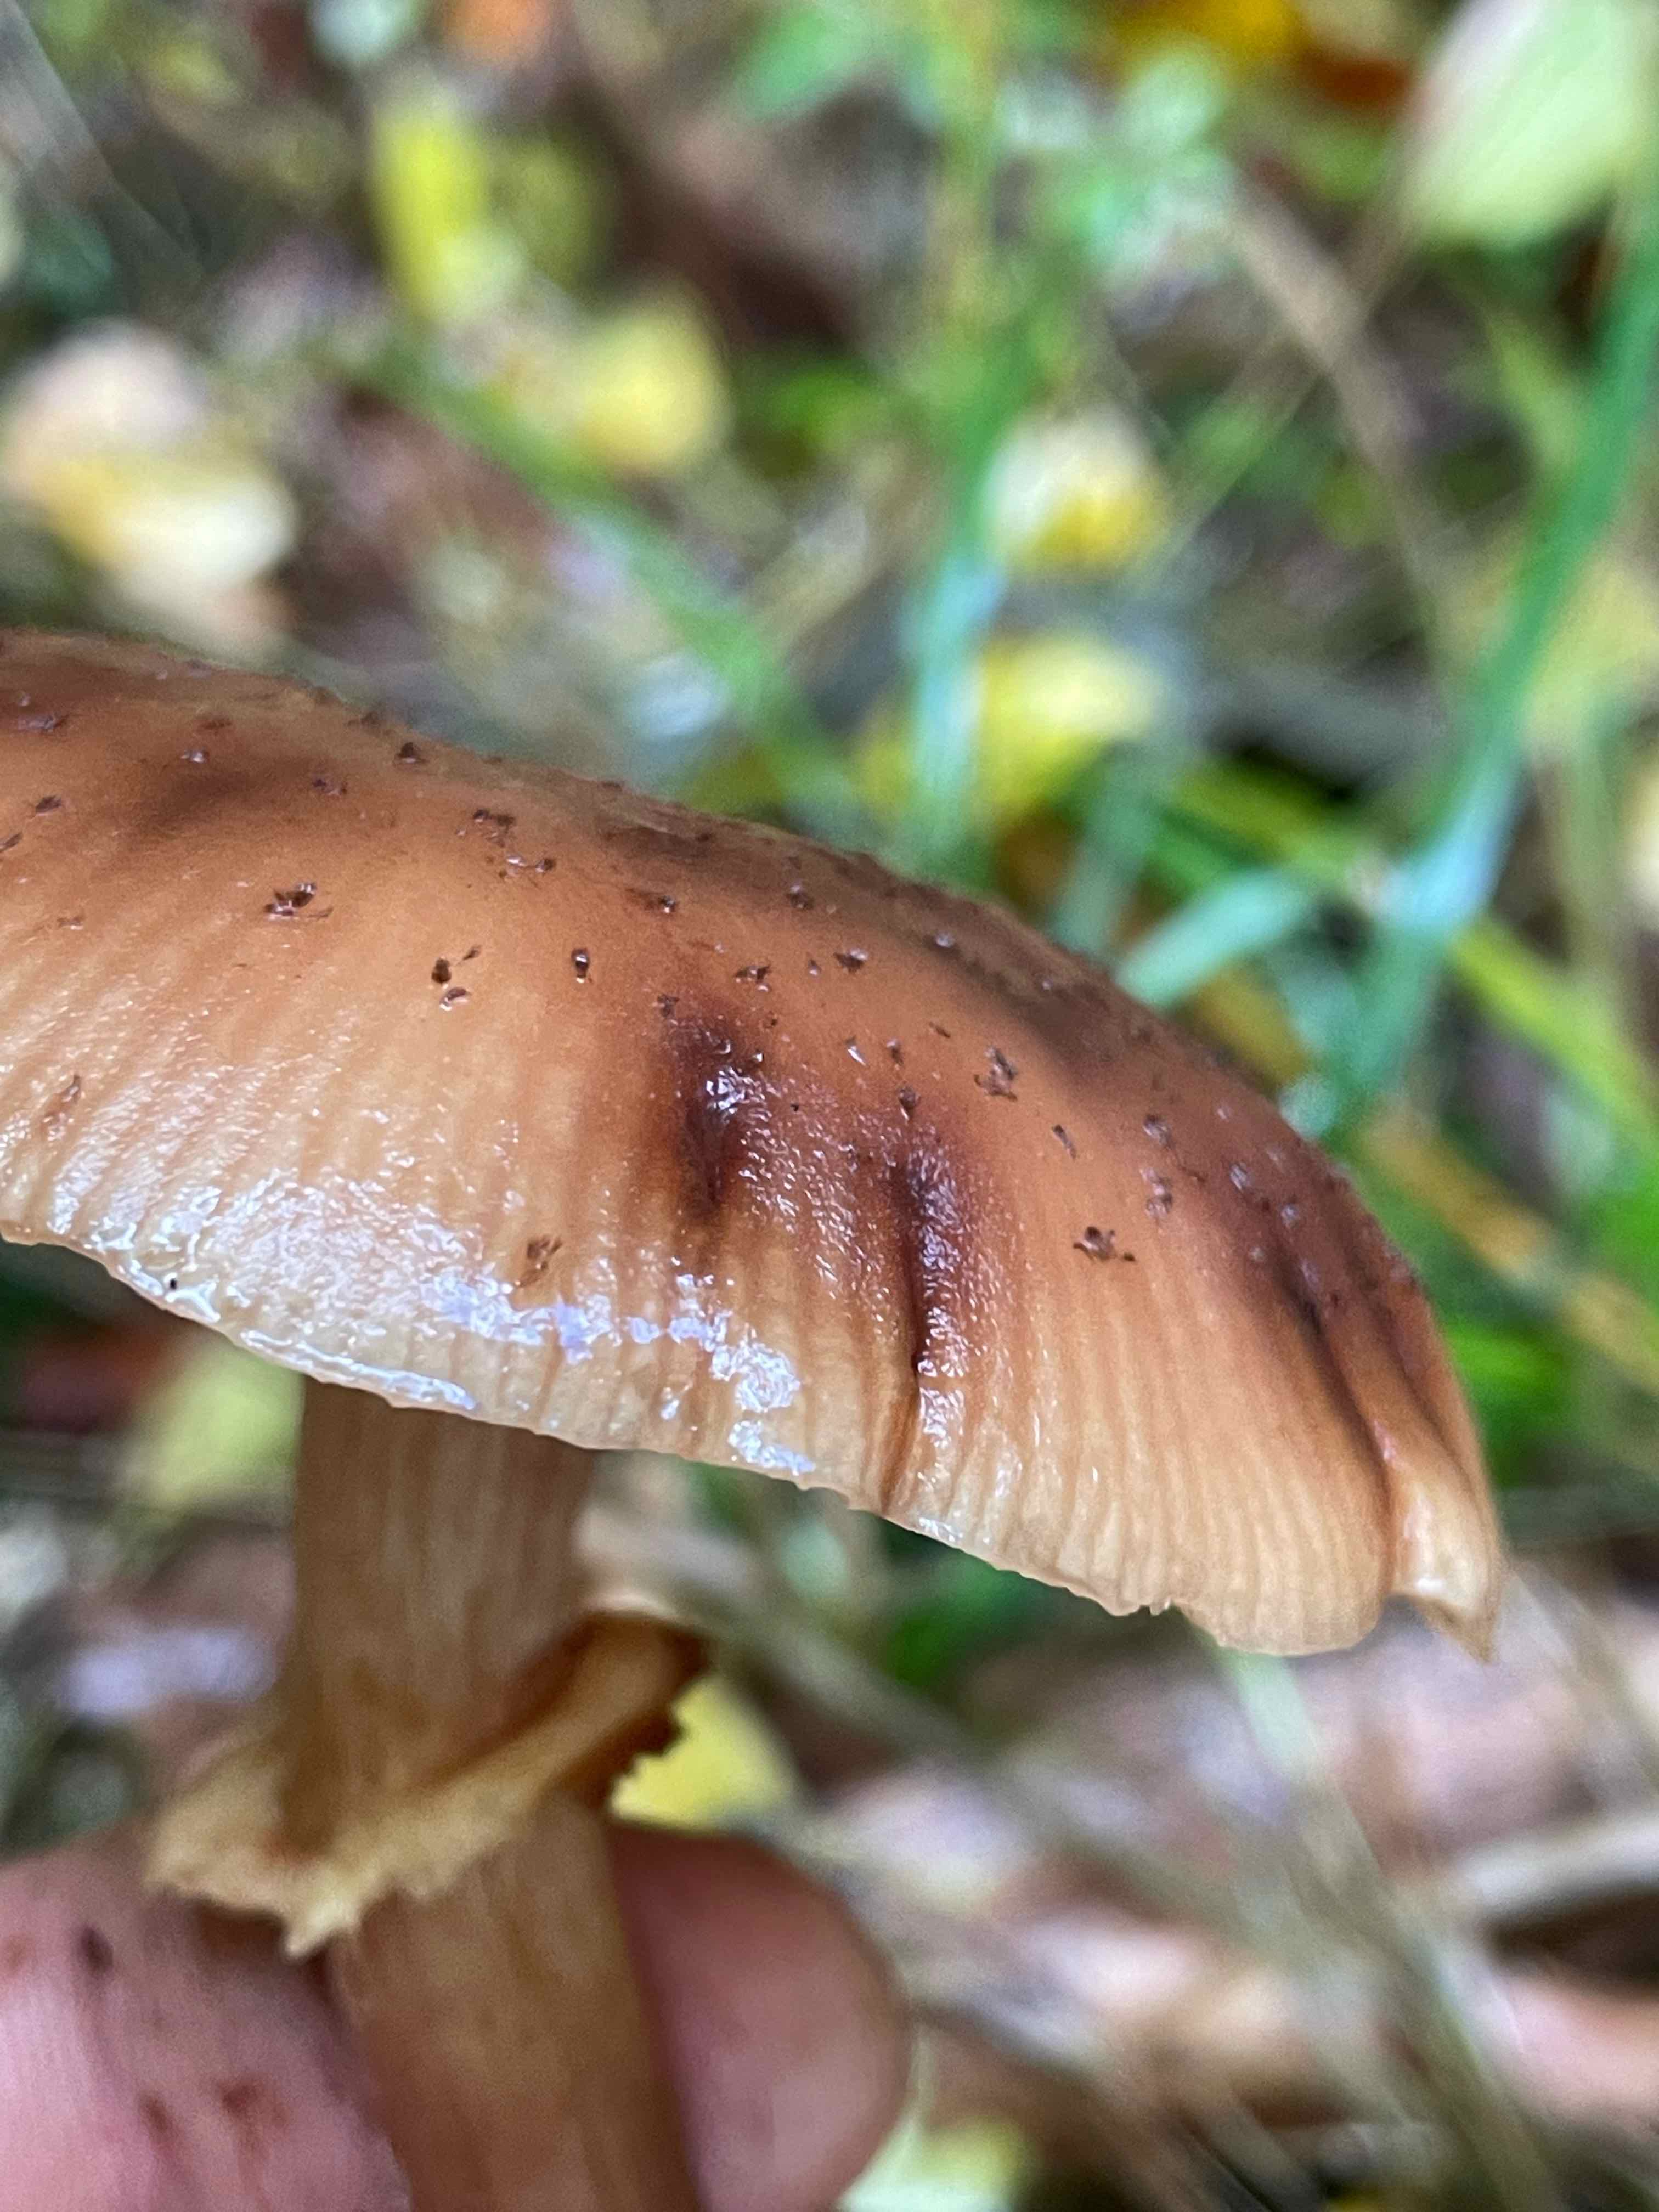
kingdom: Fungi
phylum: Basidiomycota
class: Agaricomycetes
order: Agaricales
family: Physalacriaceae
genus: Armillaria
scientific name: Armillaria
